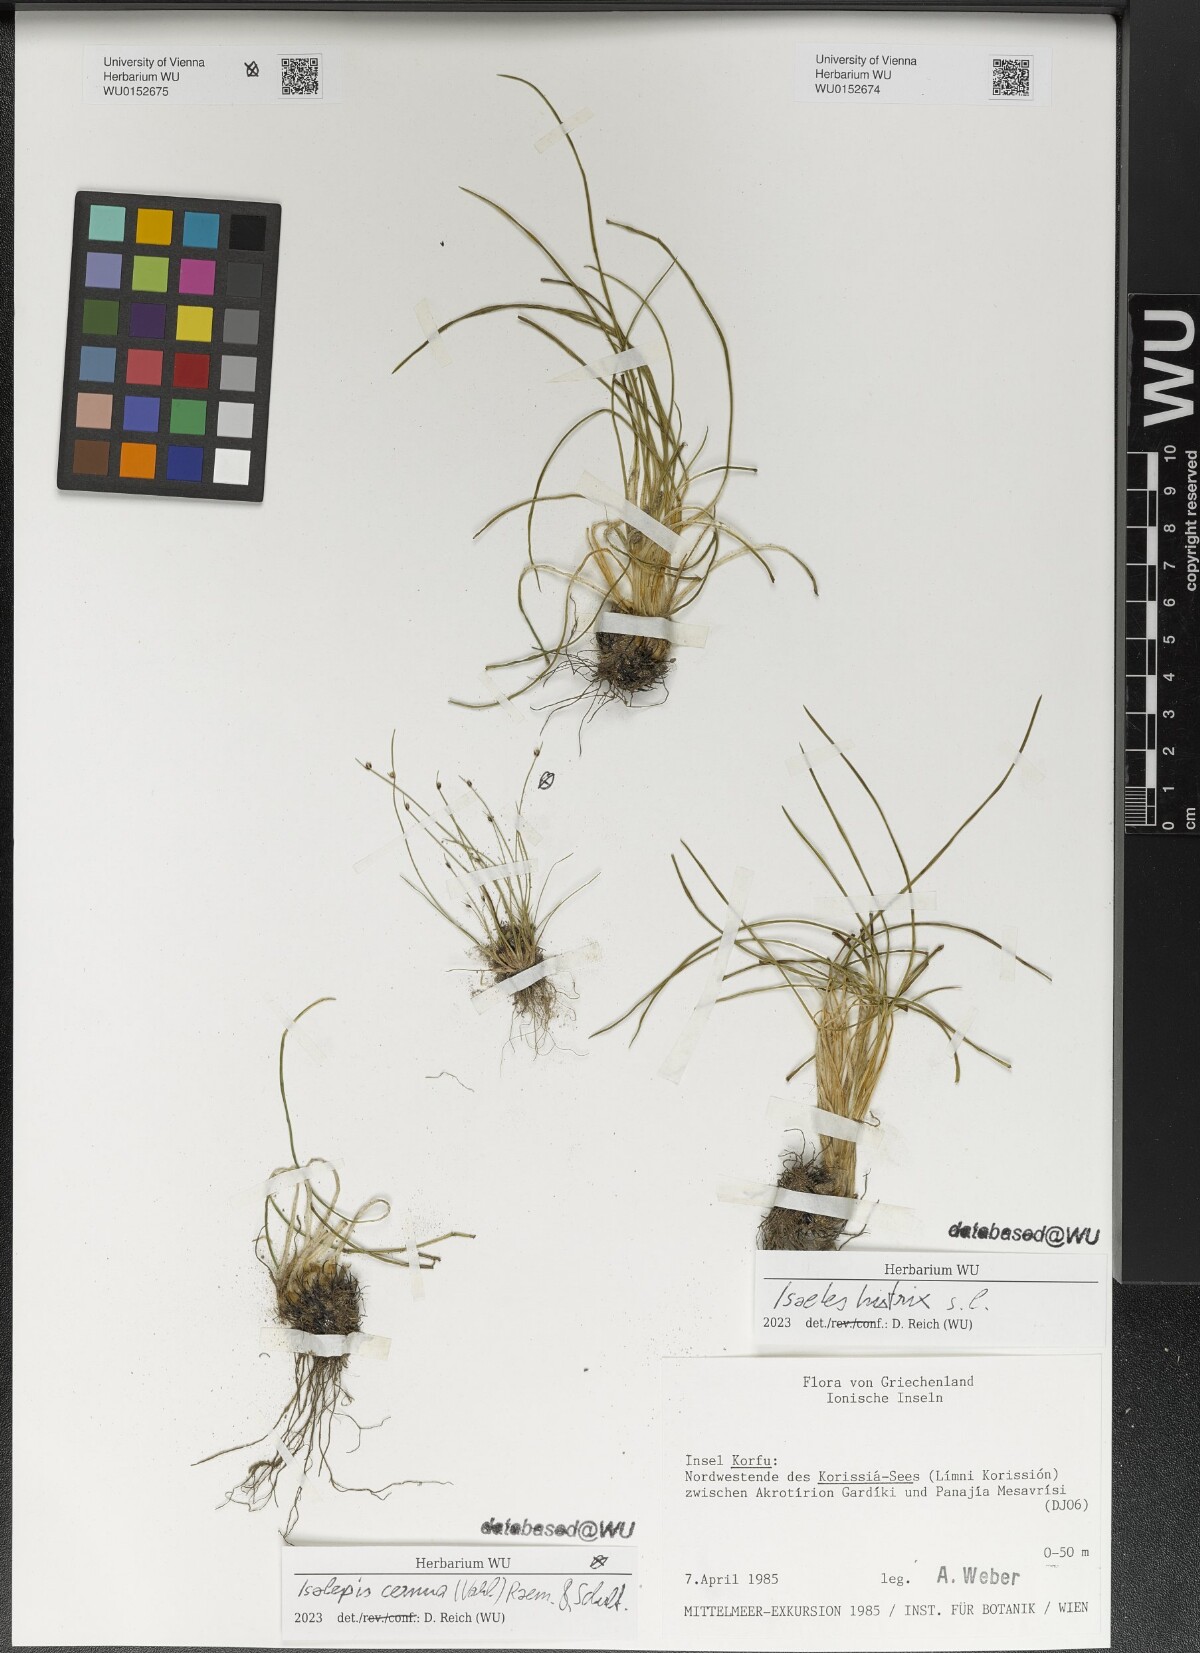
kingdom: Plantae
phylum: Tracheophyta
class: Lycopodiopsida
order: Isoetales
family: Isoetaceae
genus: Isoetes
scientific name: Isoetes histrix
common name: Land quillwort
